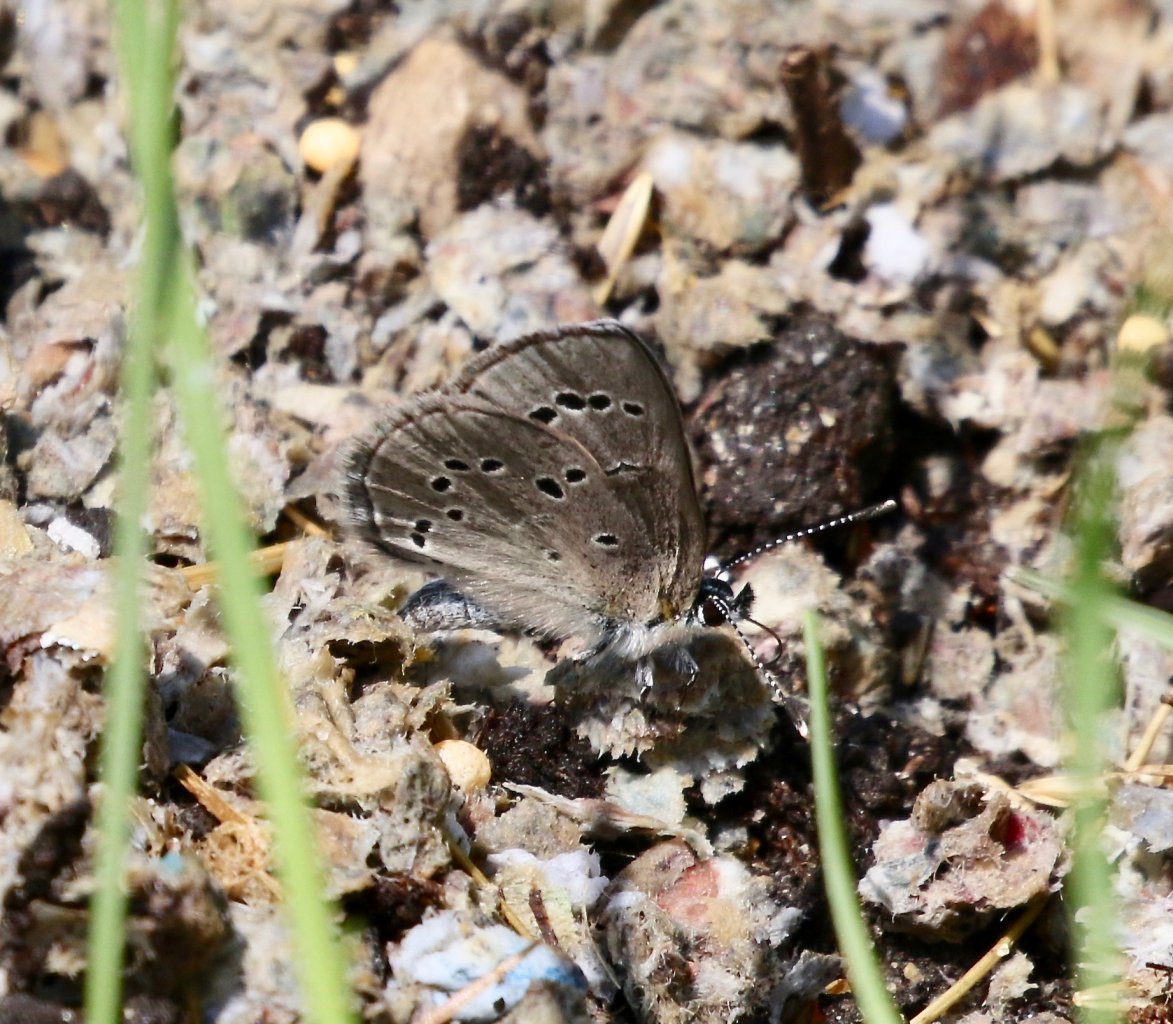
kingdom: Animalia
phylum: Arthropoda
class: Insecta
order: Lepidoptera
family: Lycaenidae
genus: Glaucopsyche
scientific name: Glaucopsyche lygdamus
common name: Silvery Blue
